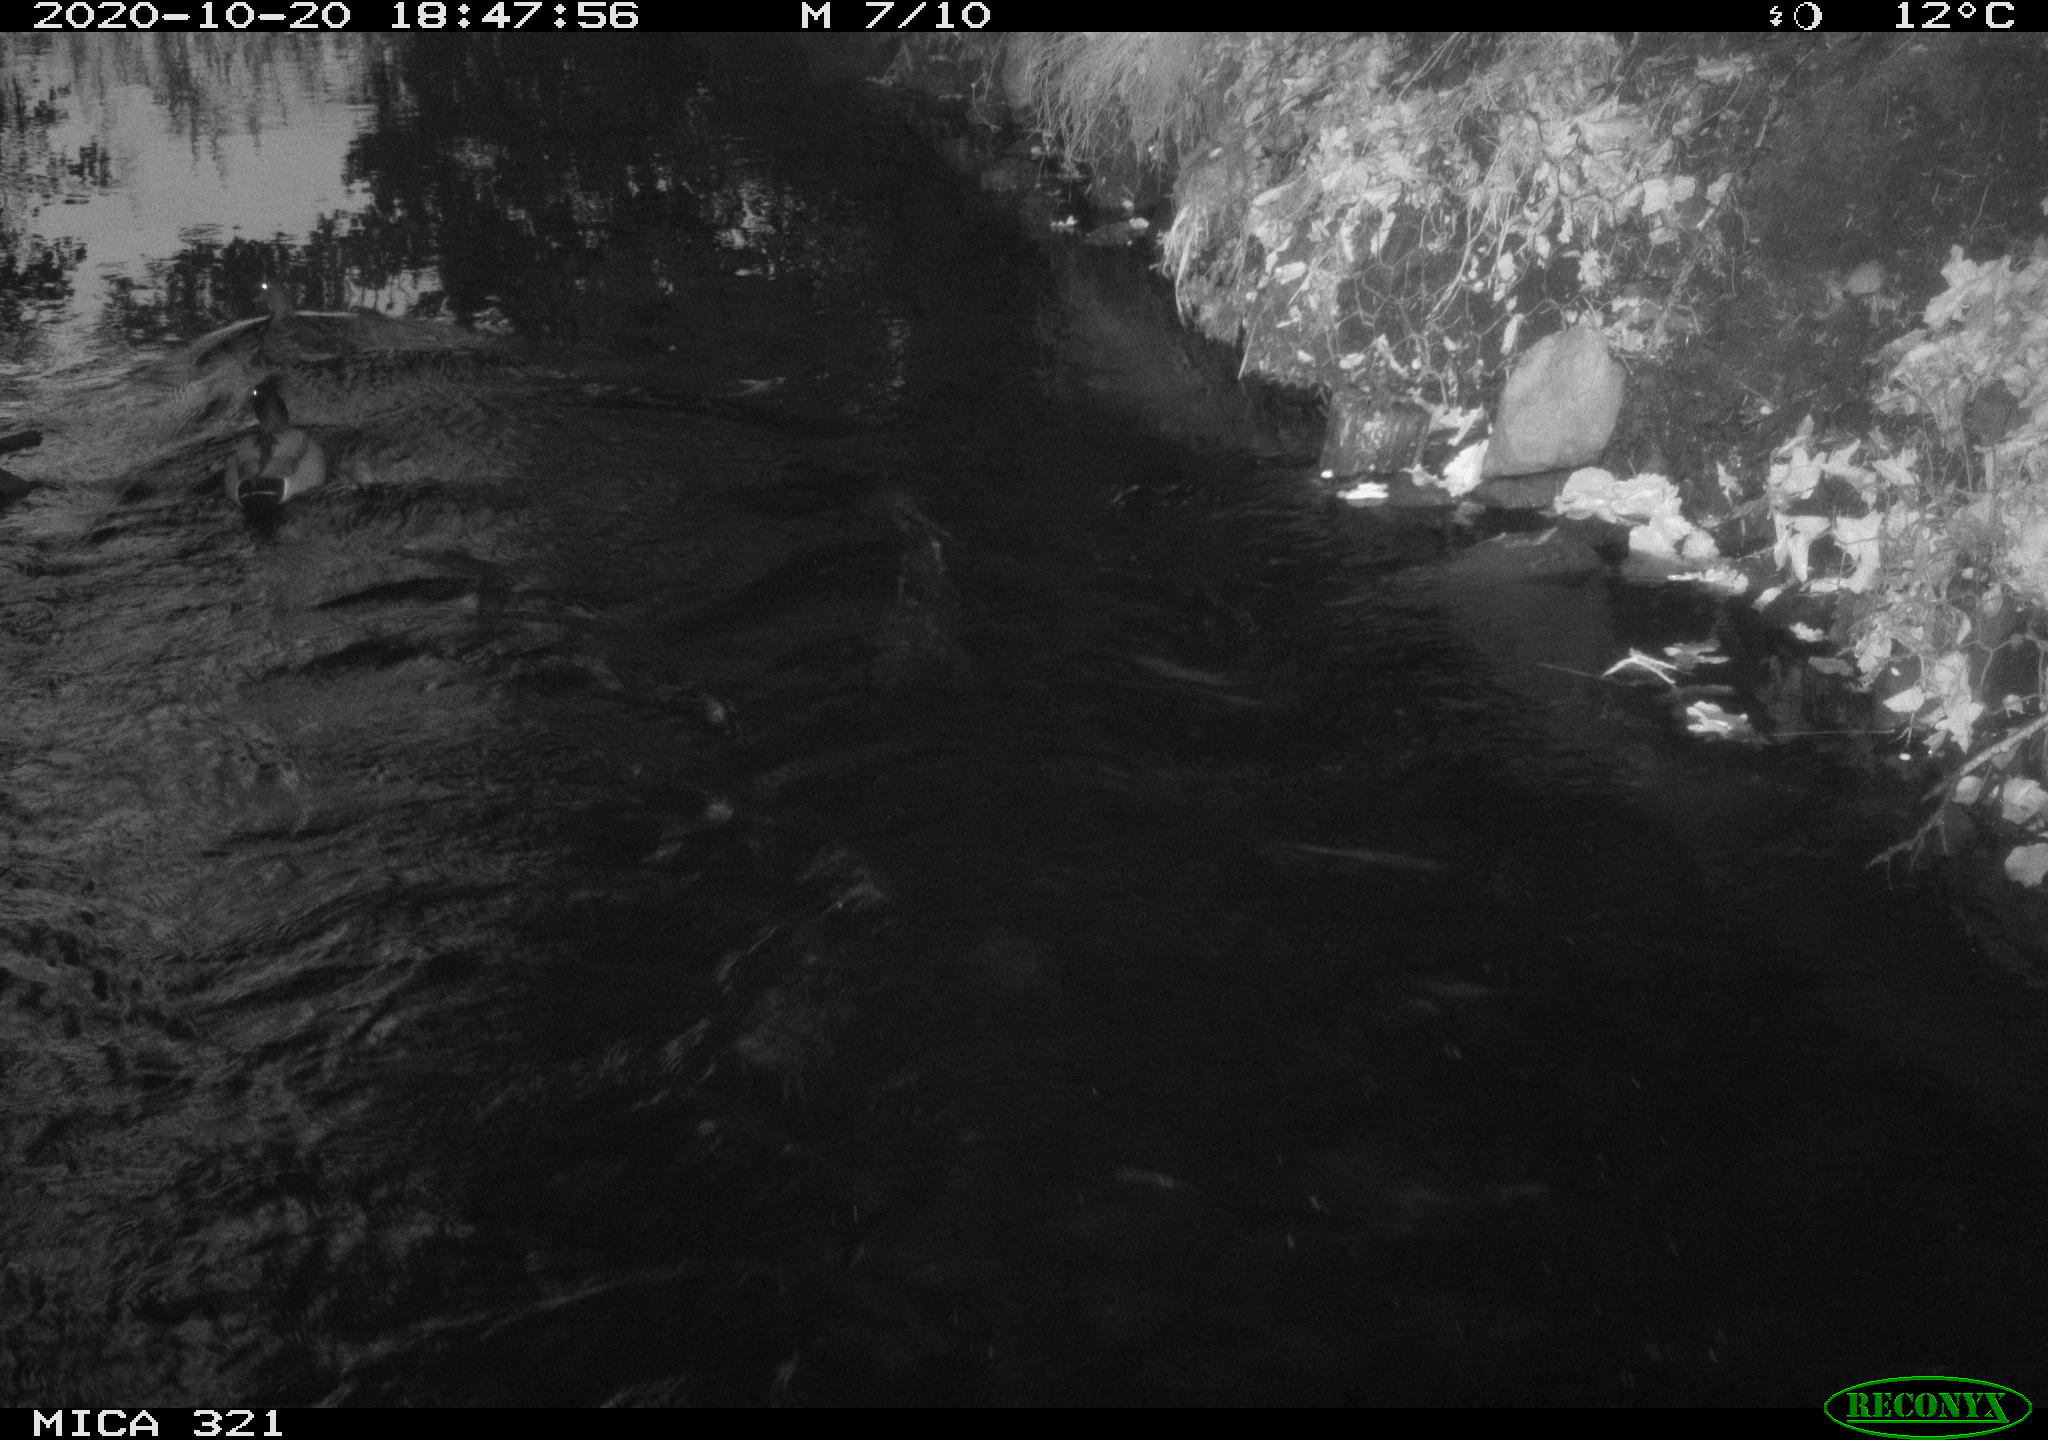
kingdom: Animalia
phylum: Chordata
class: Aves
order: Anseriformes
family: Anatidae
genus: Anas
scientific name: Anas platyrhynchos
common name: Mallard
